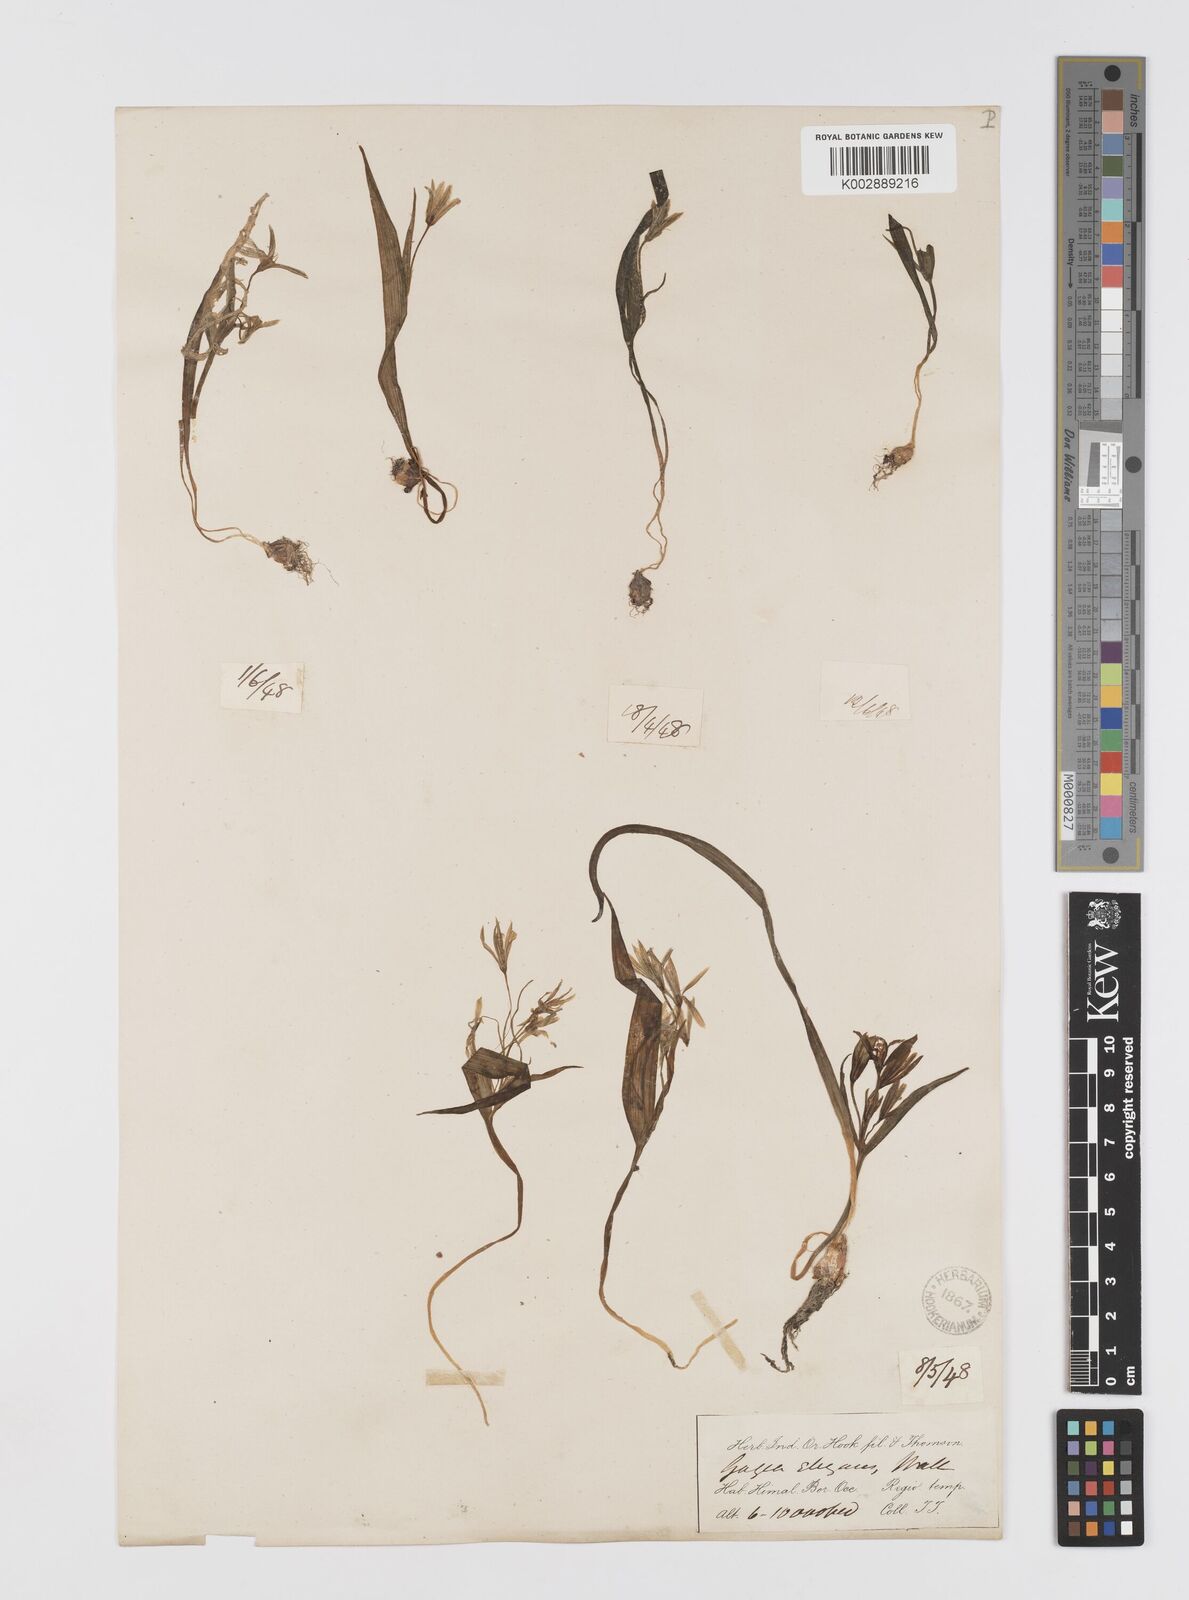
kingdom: Plantae
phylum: Tracheophyta
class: Liliopsida
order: Liliales
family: Liliaceae
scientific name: Liliaceae
